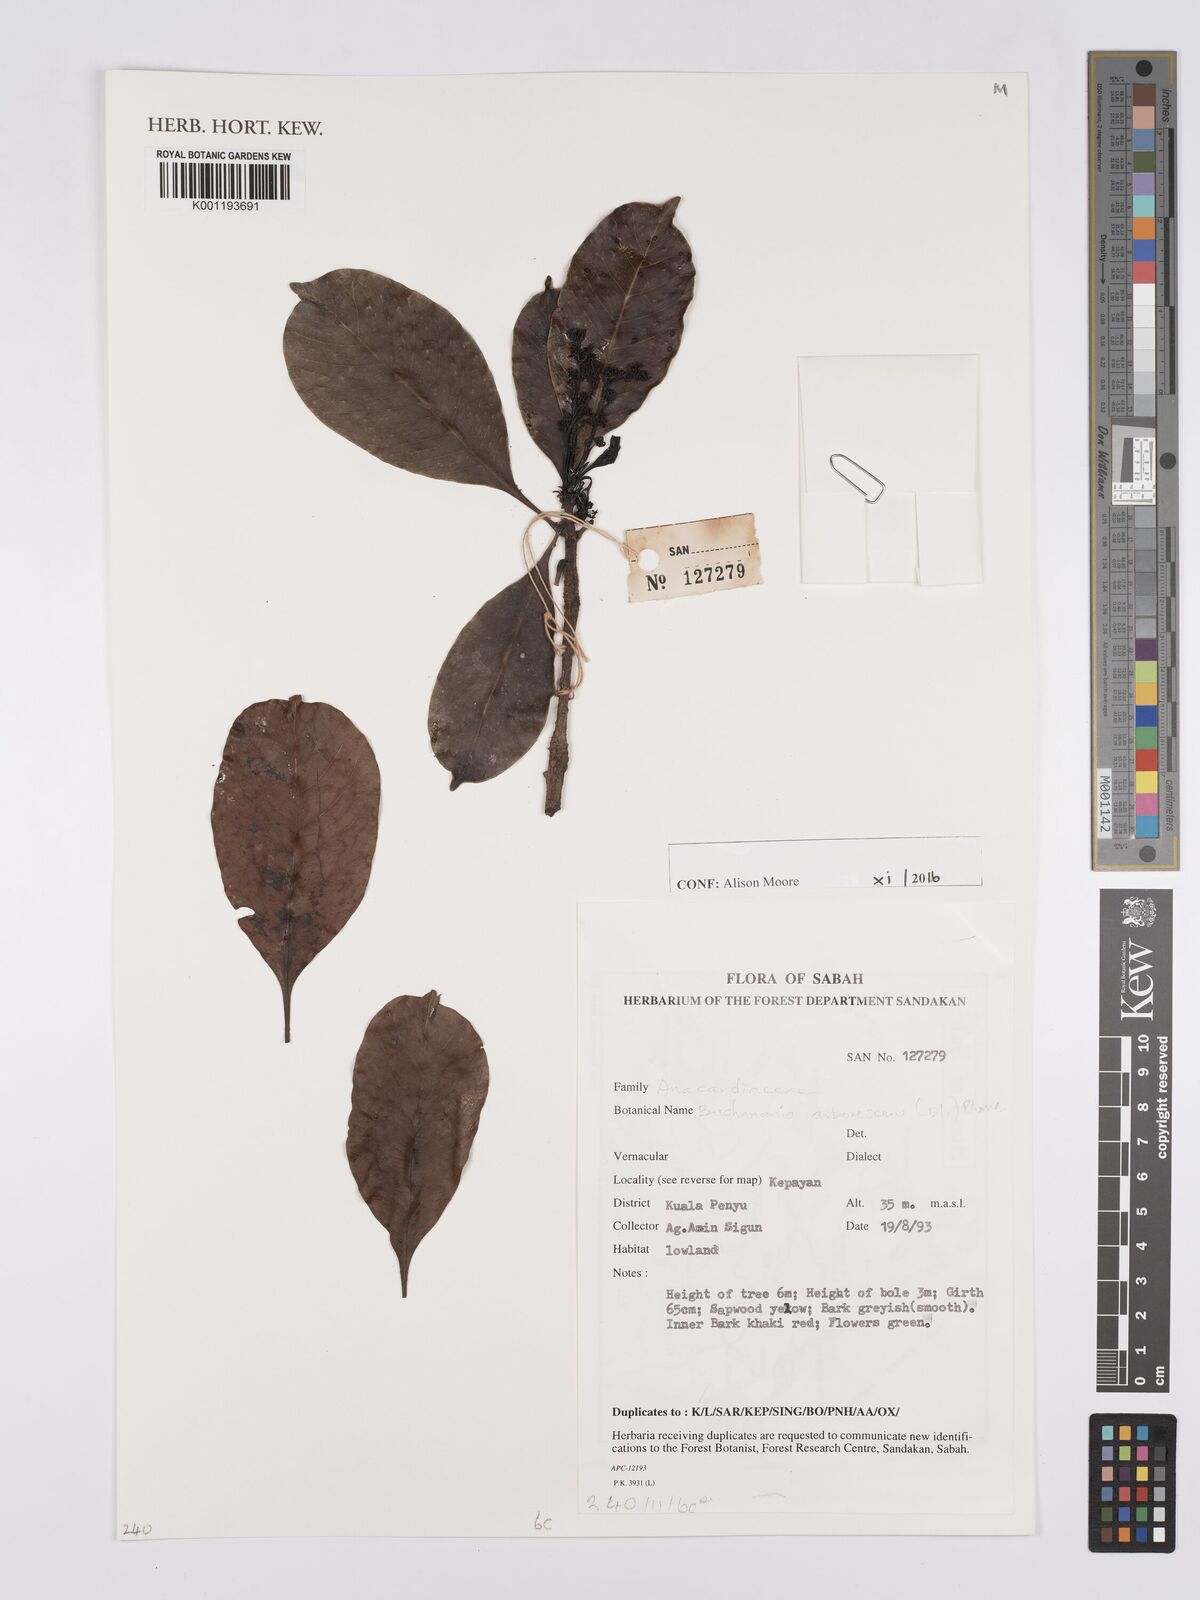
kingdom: Plantae
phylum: Tracheophyta
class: Magnoliopsida
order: Sapindales
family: Anacardiaceae
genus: Buchanania
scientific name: Buchanania arborescens
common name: Sparrow’s mango
